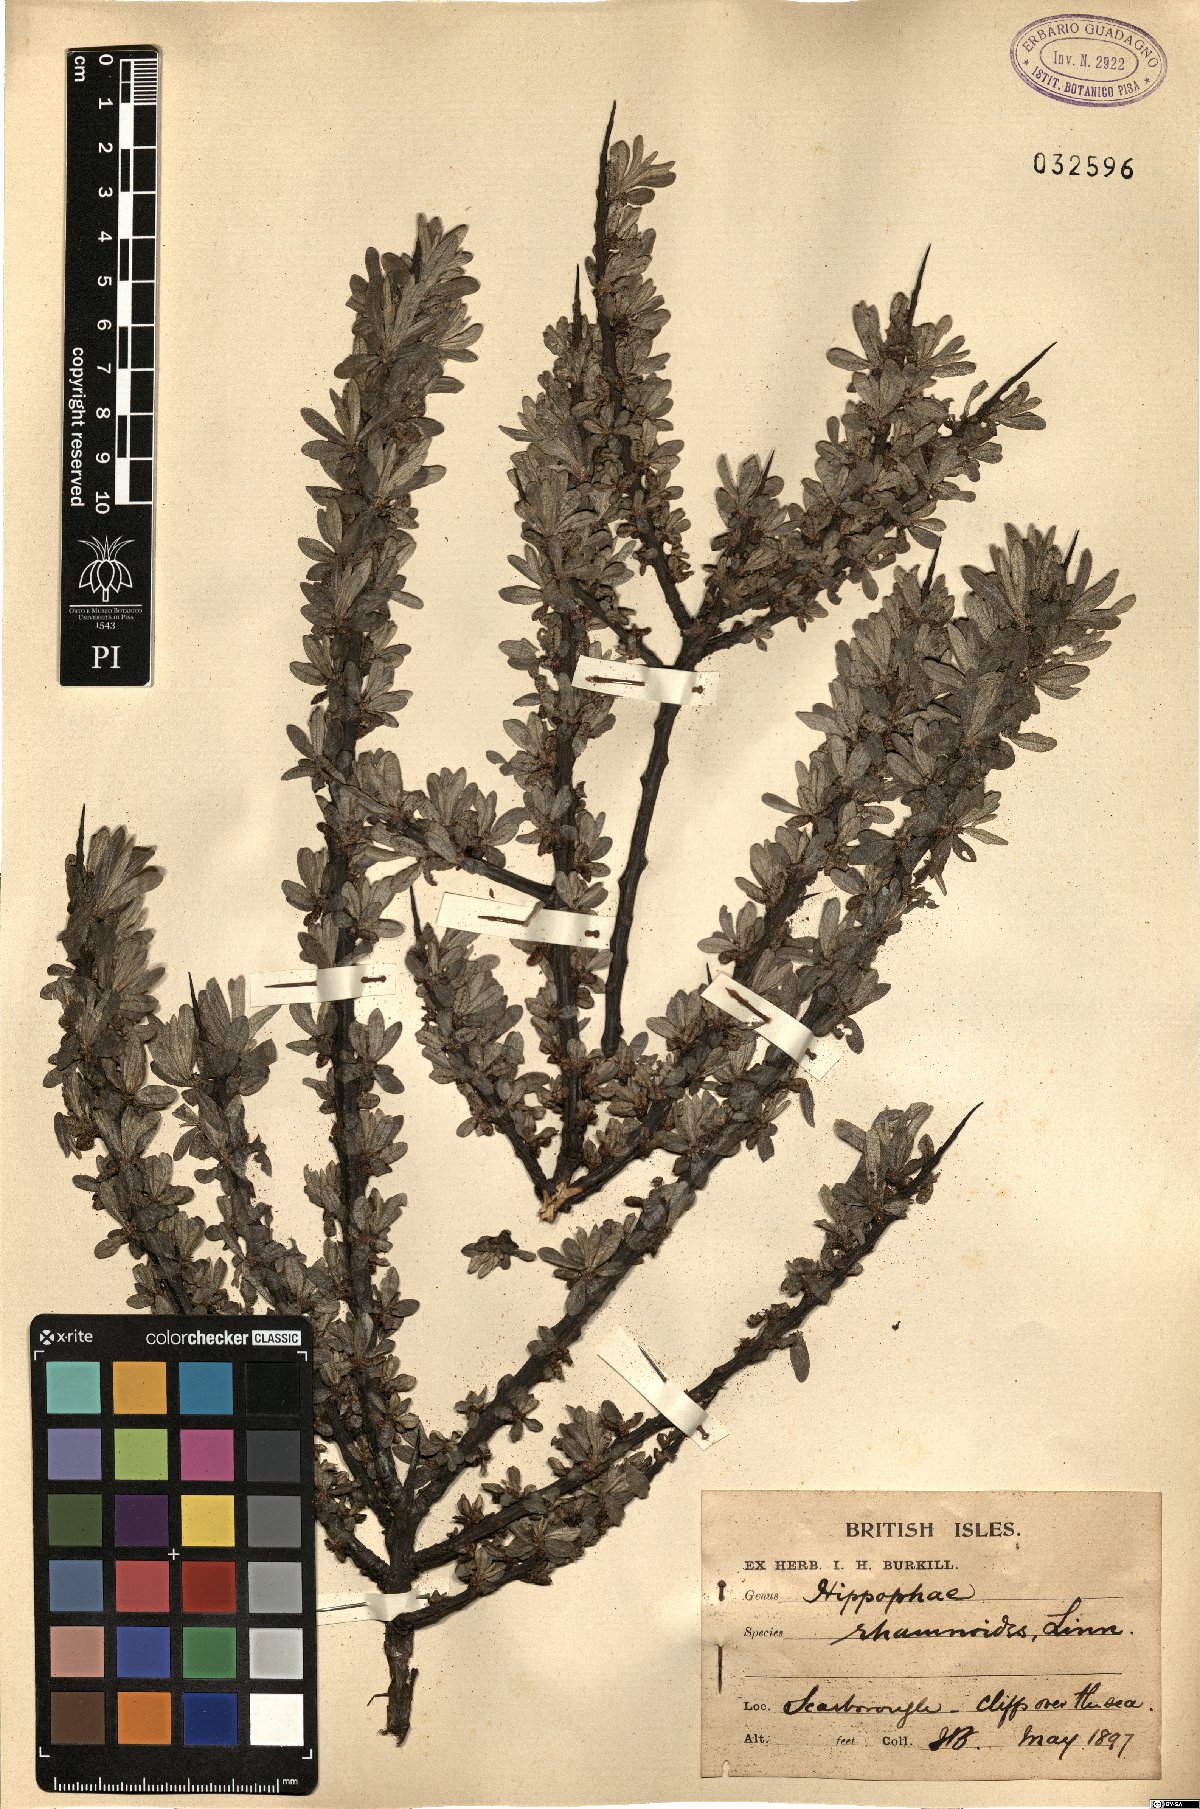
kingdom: Plantae
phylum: Tracheophyta
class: Magnoliopsida
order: Rosales
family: Elaeagnaceae
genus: Hippophae
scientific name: Hippophae rhamnoides
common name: Sea-buckthorn
